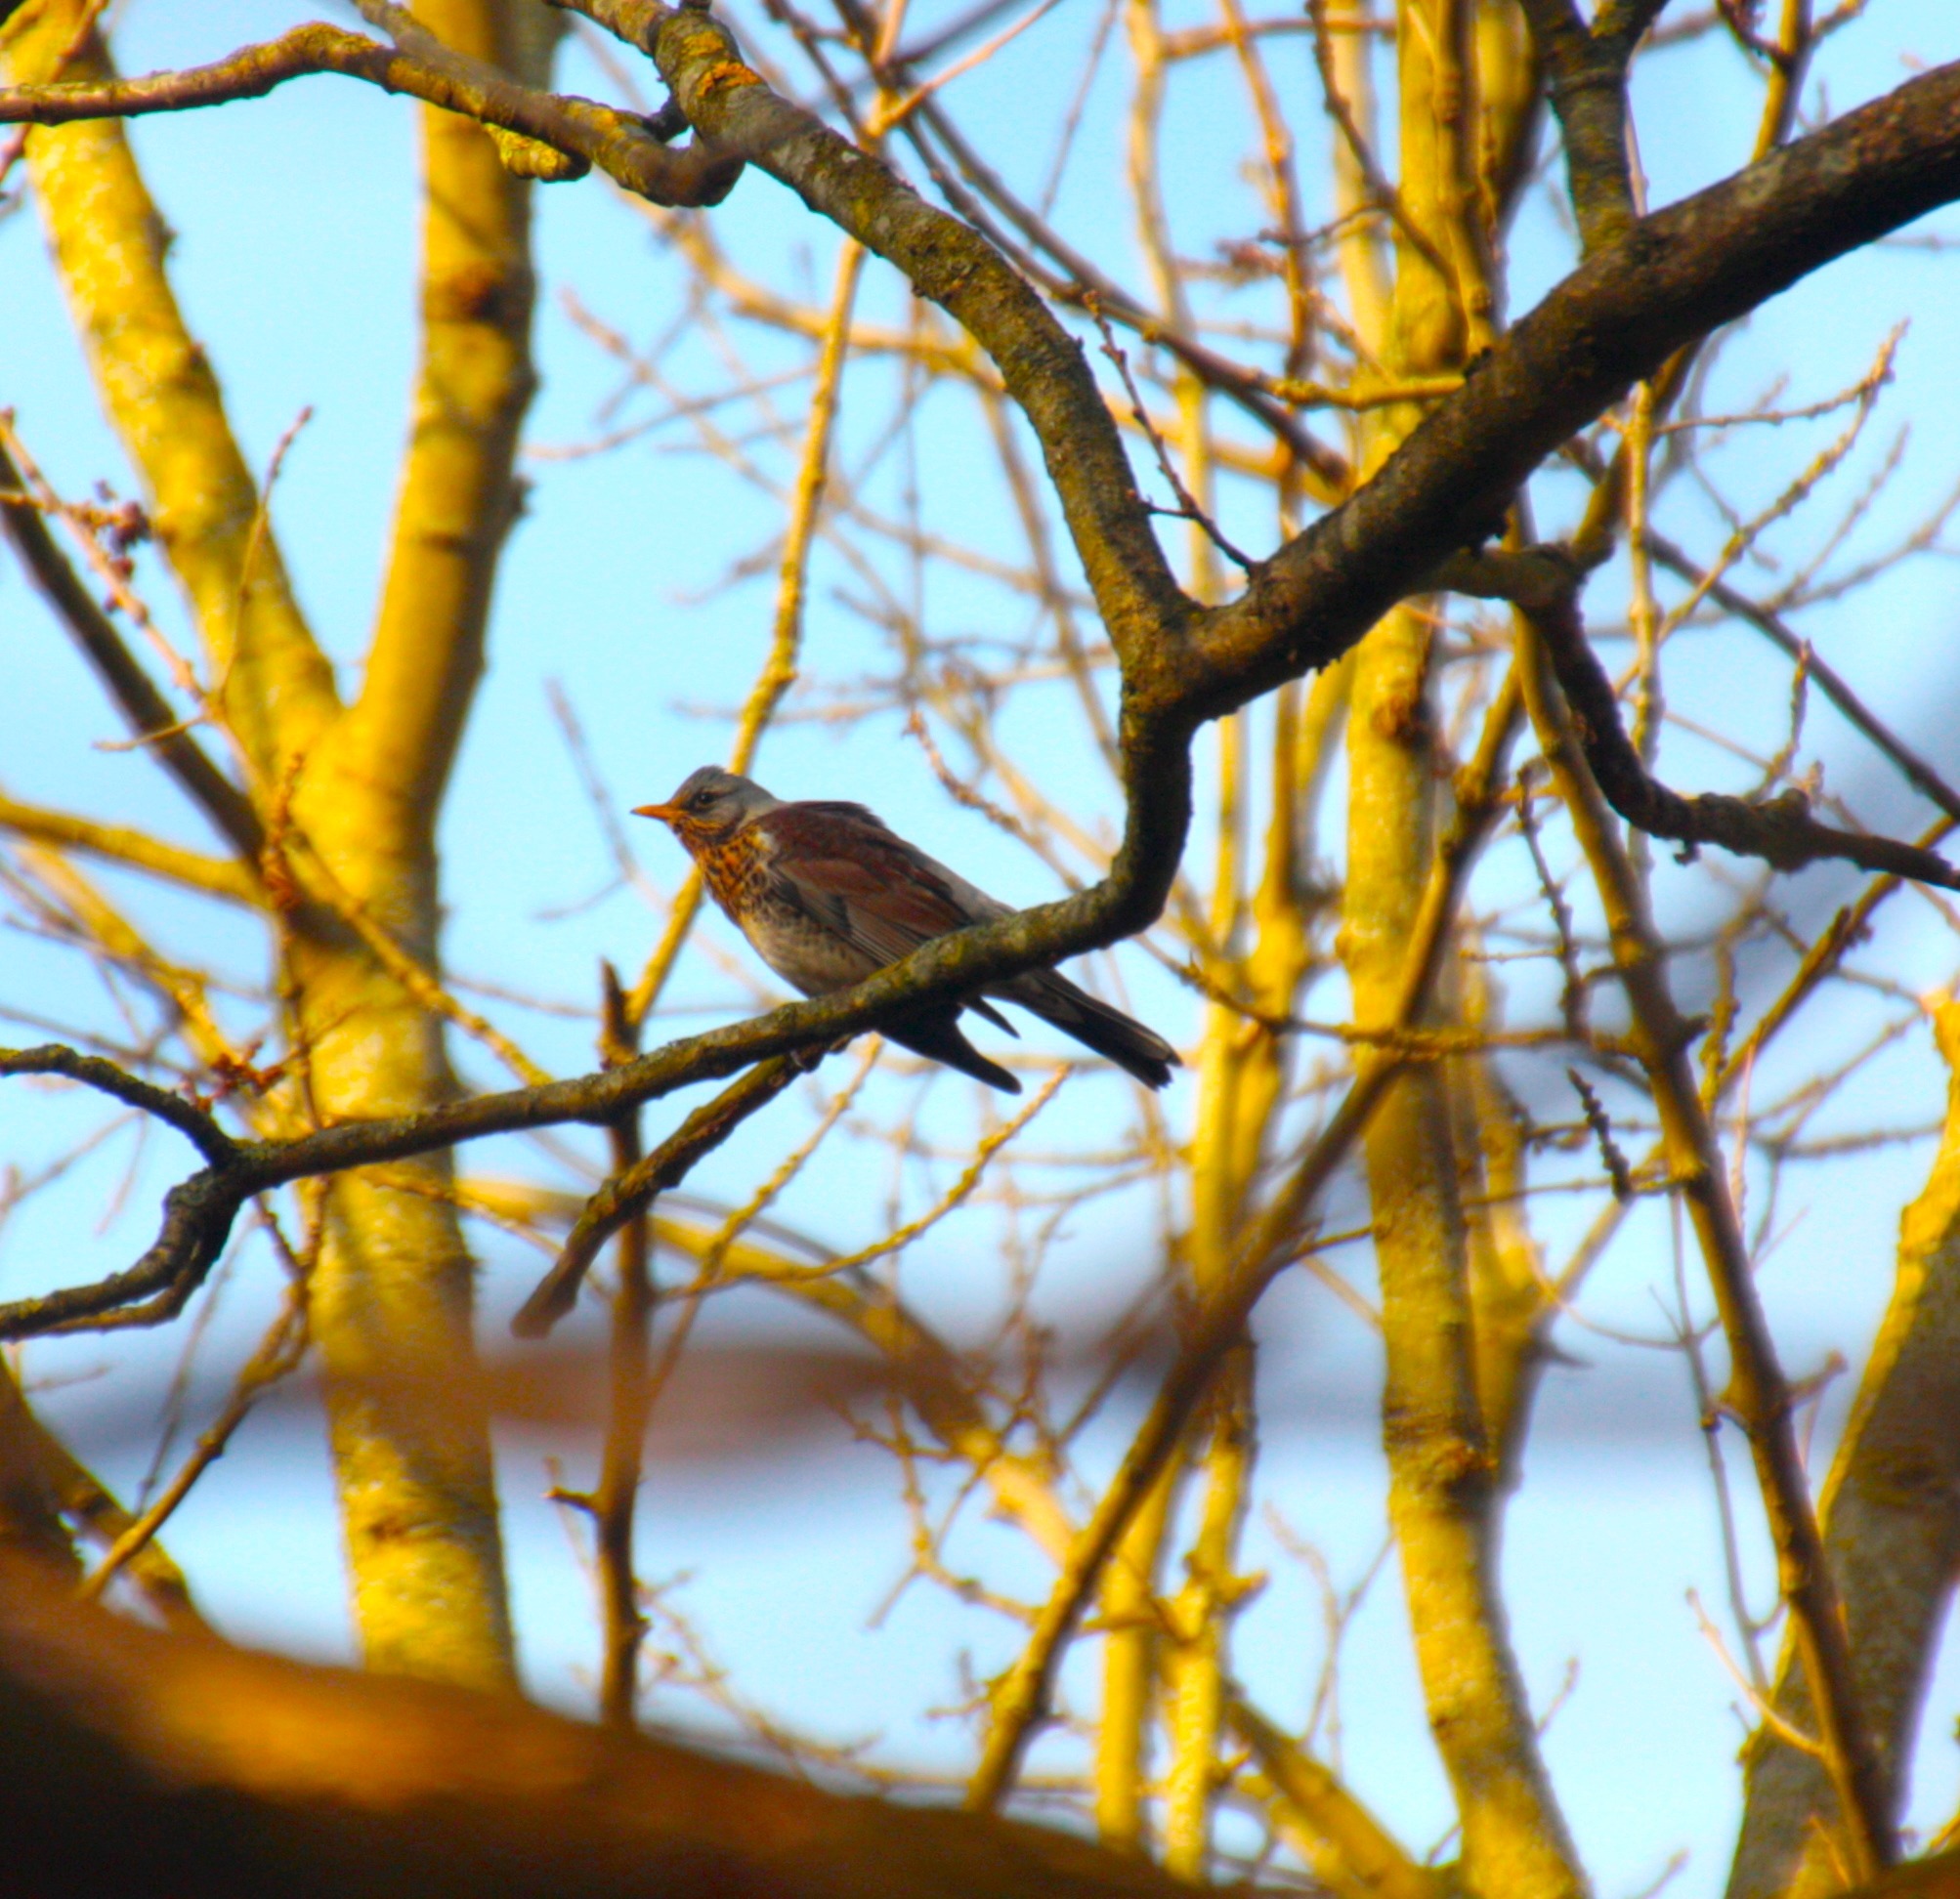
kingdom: Animalia
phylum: Chordata
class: Aves
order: Passeriformes
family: Turdidae
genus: Turdus
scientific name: Turdus pilaris
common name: Sjagger
